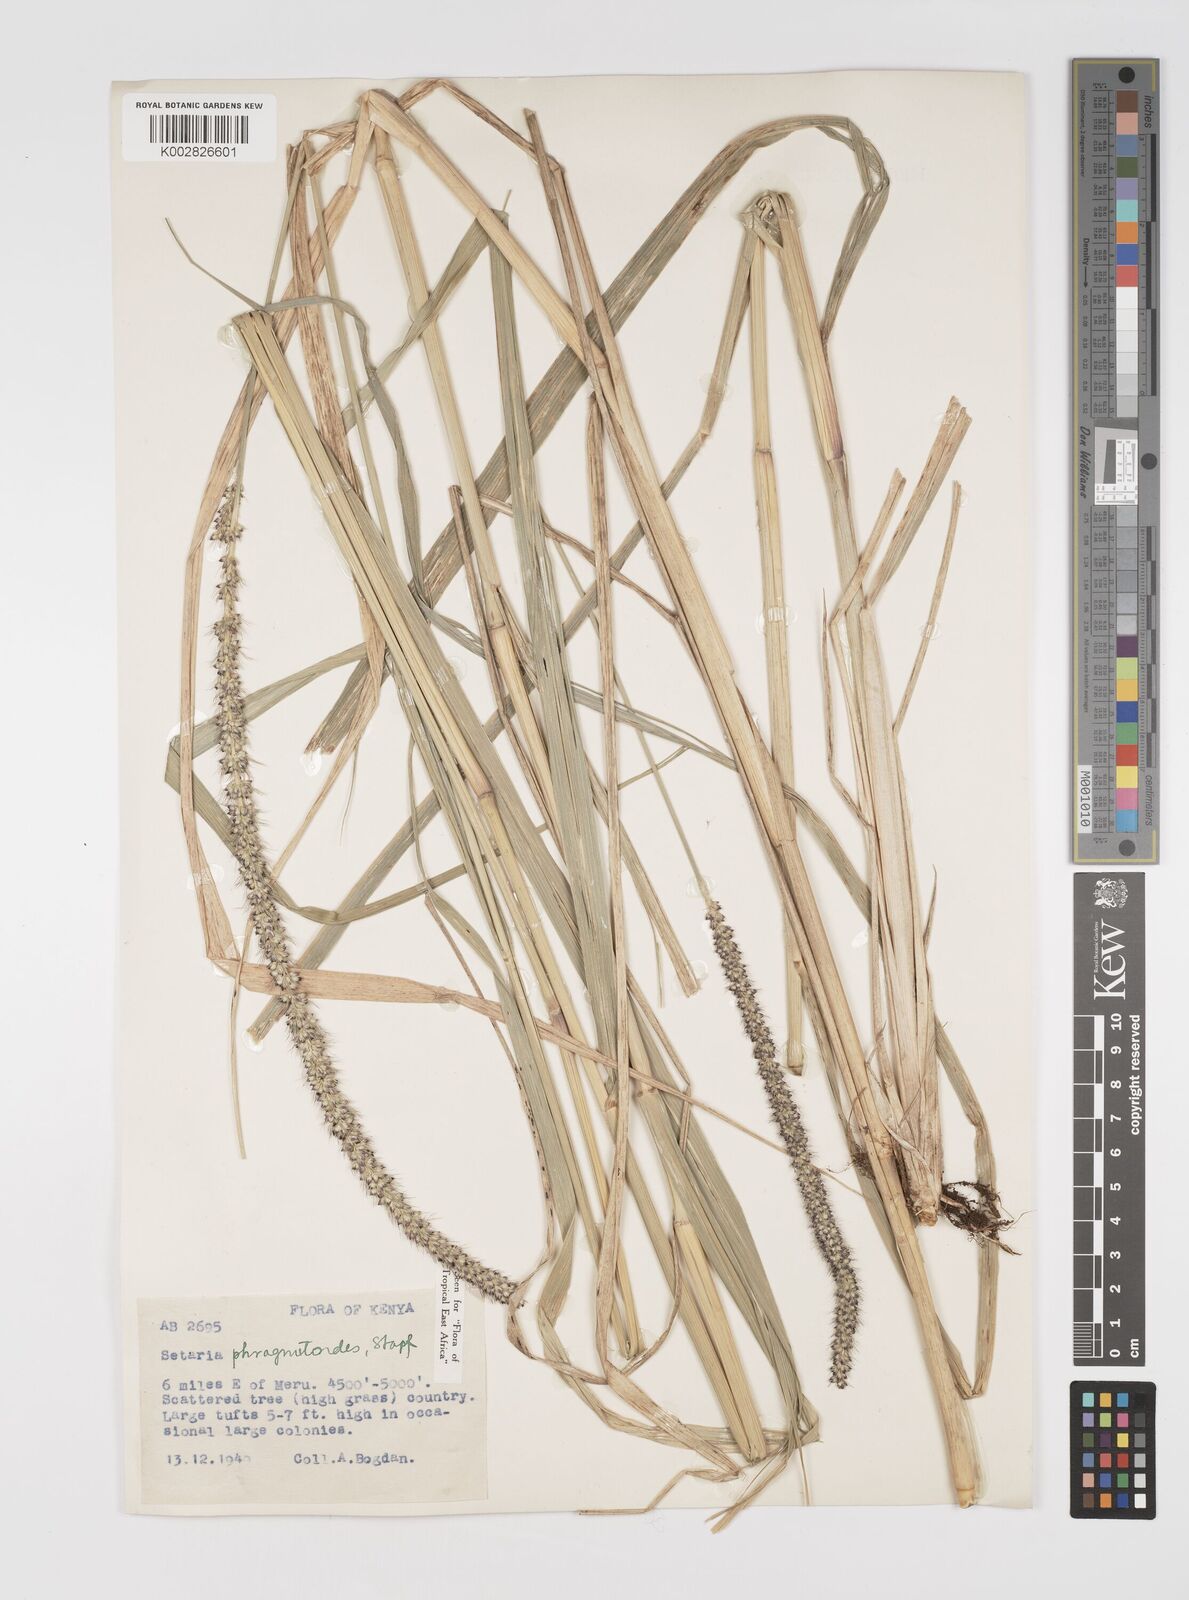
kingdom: Plantae
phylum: Tracheophyta
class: Liliopsida
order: Poales
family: Poaceae
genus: Setaria
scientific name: Setaria incrassata
